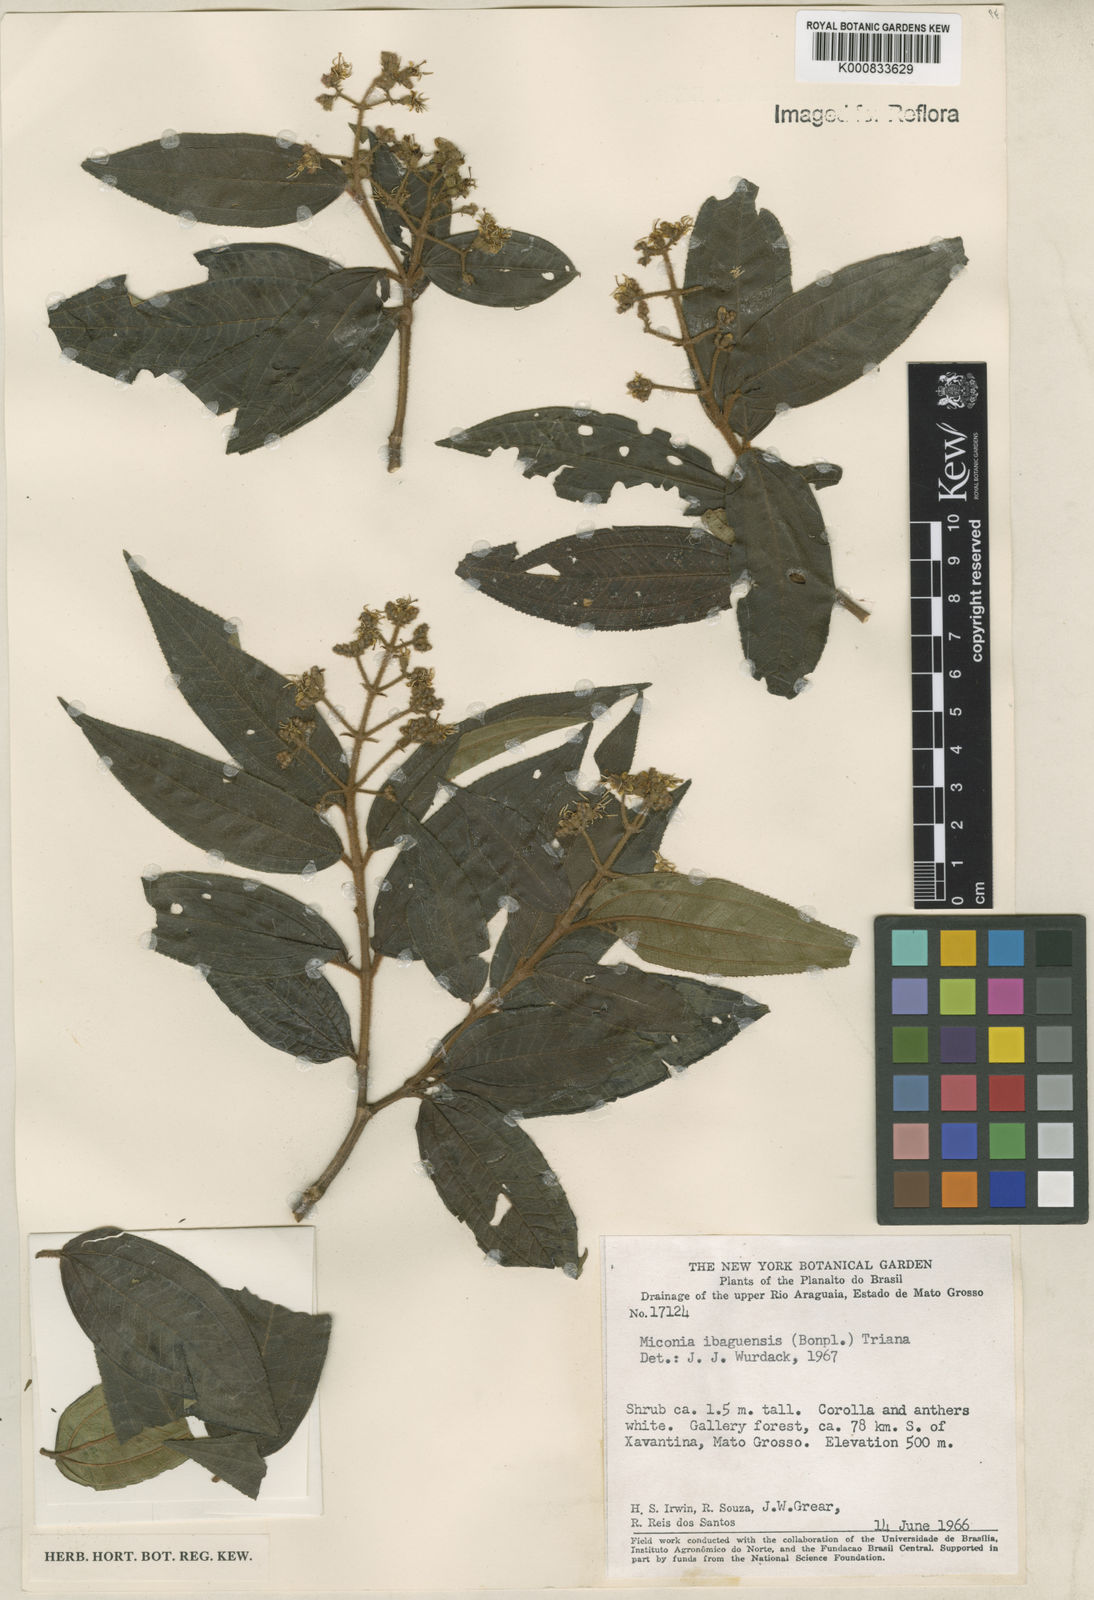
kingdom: Plantae
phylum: Tracheophyta
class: Magnoliopsida
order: Myrtales
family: Melastomataceae
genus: Miconia
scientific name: Miconia ibaguensis
